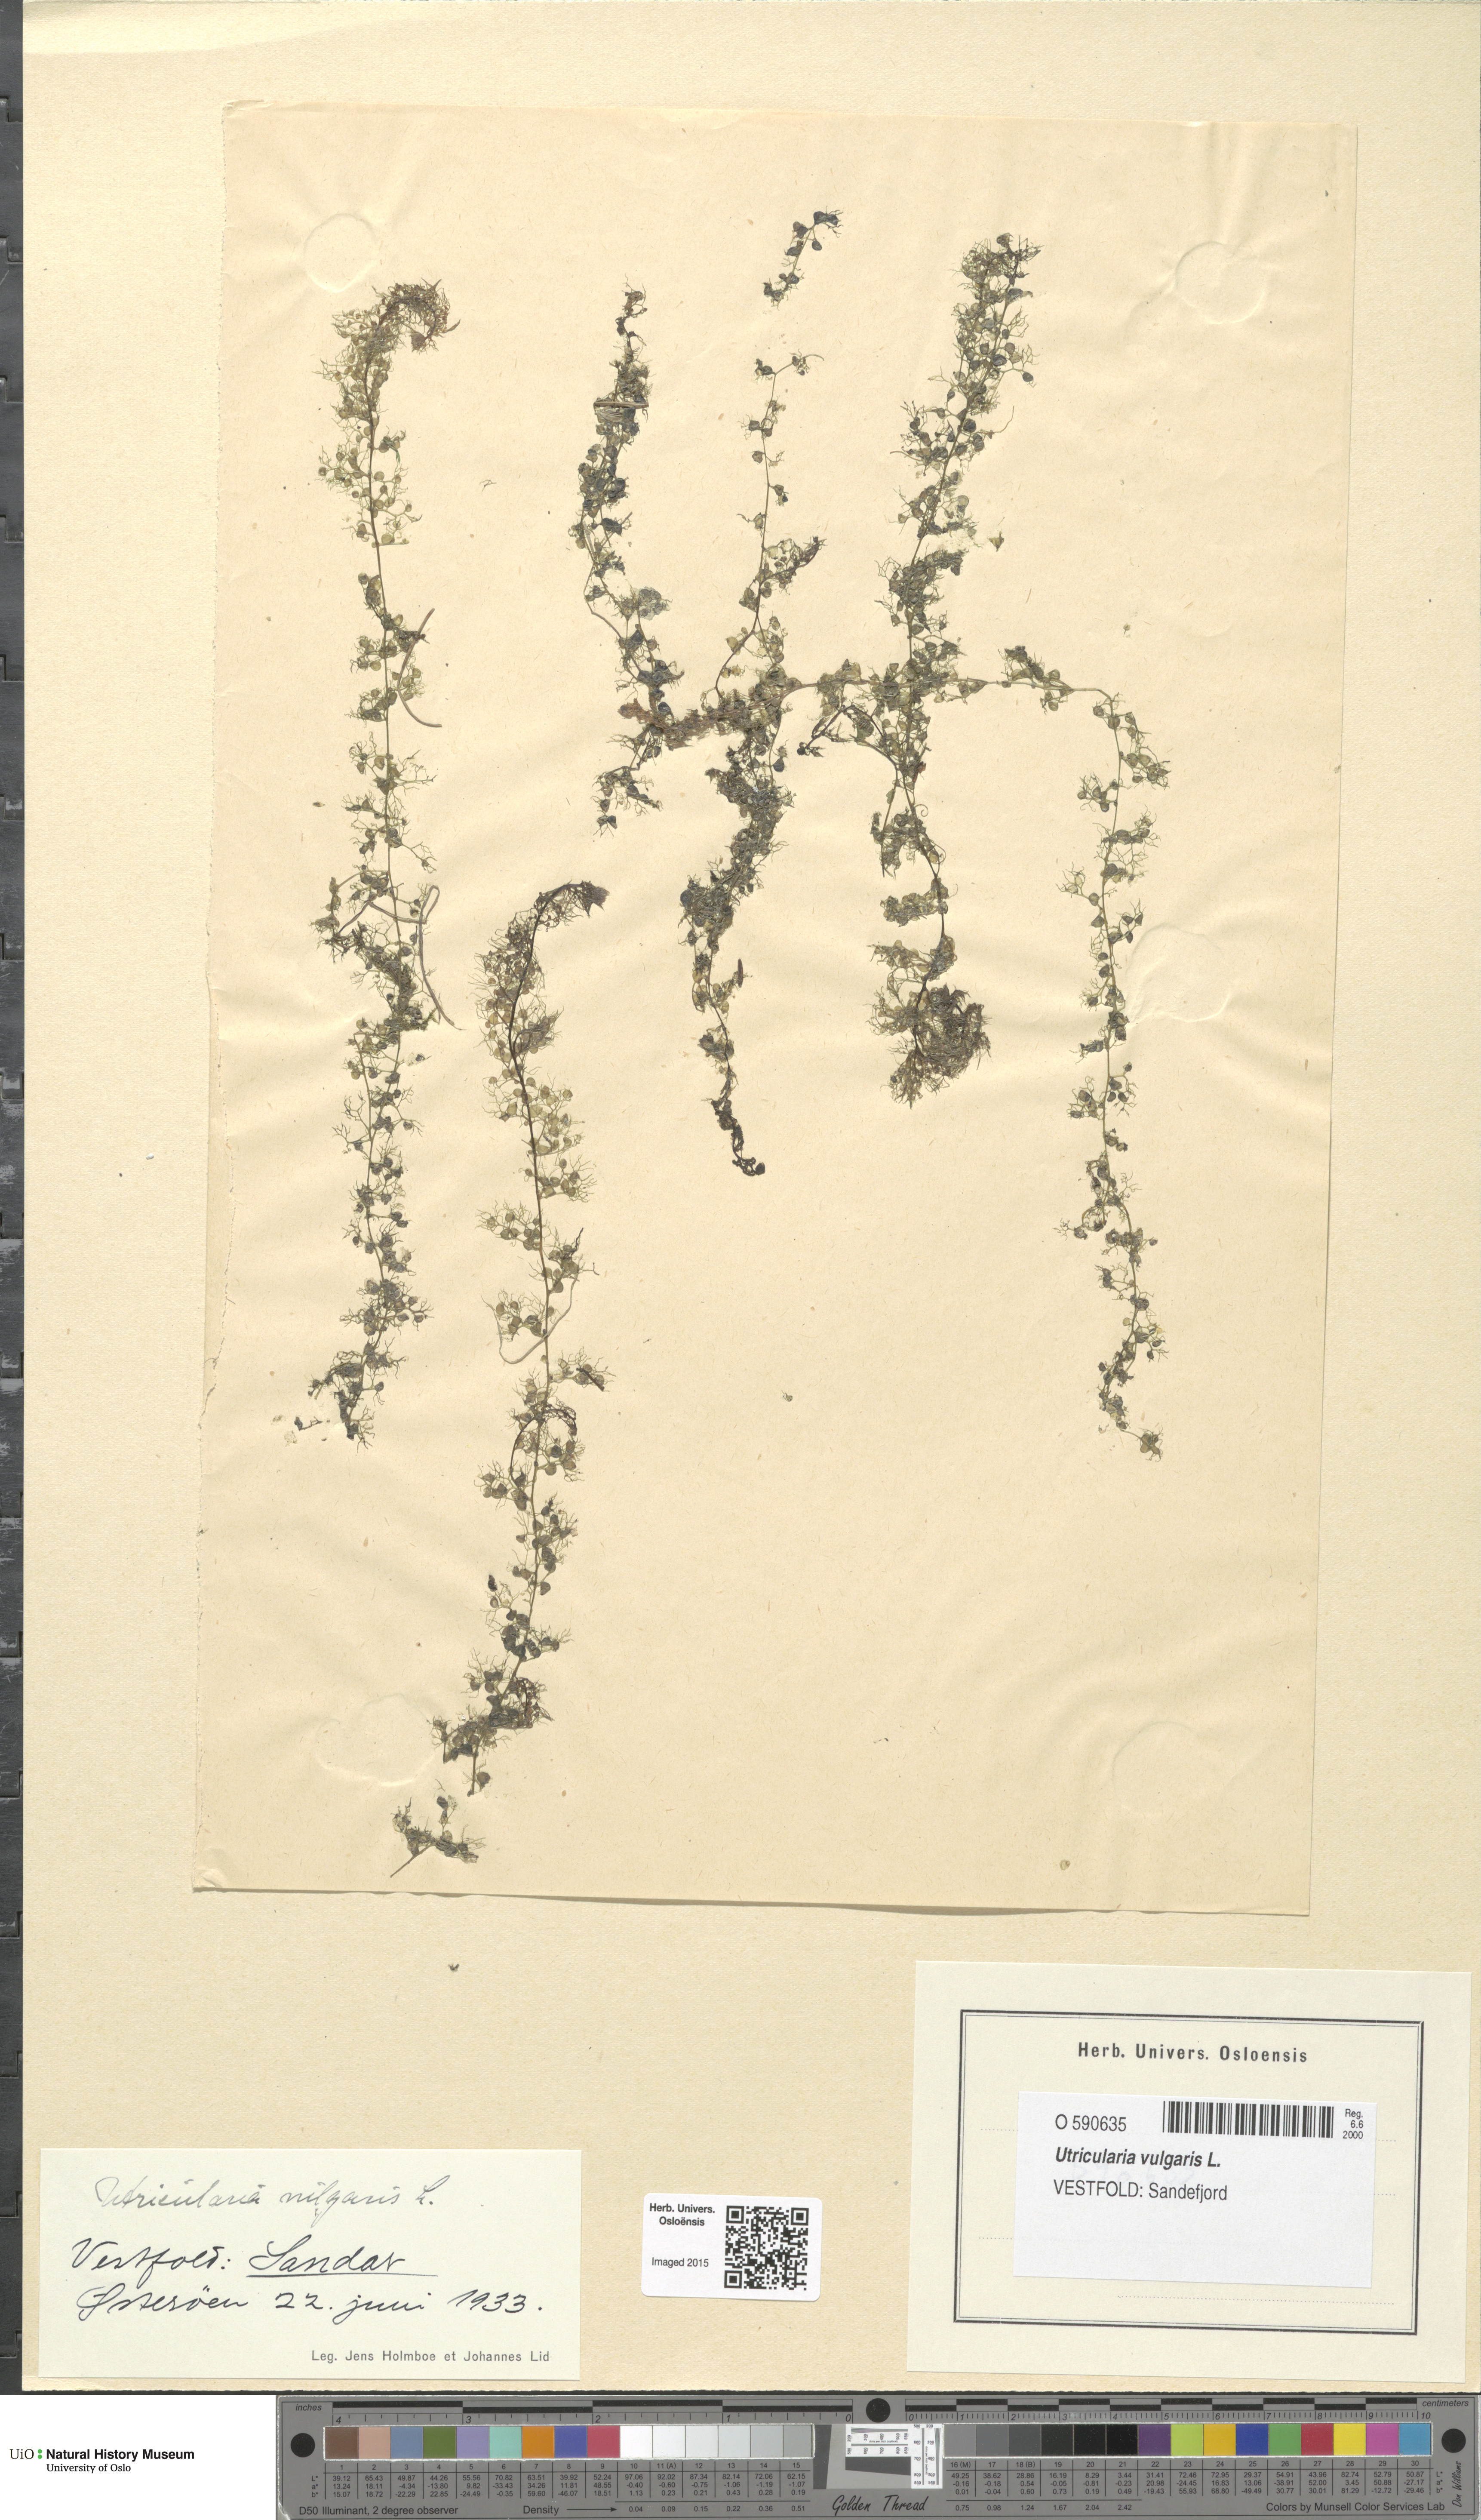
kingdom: Plantae
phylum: Tracheophyta
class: Magnoliopsida
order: Lamiales
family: Lentibulariaceae
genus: Utricularia
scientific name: Utricularia vulgaris
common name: Greater bladderwort
